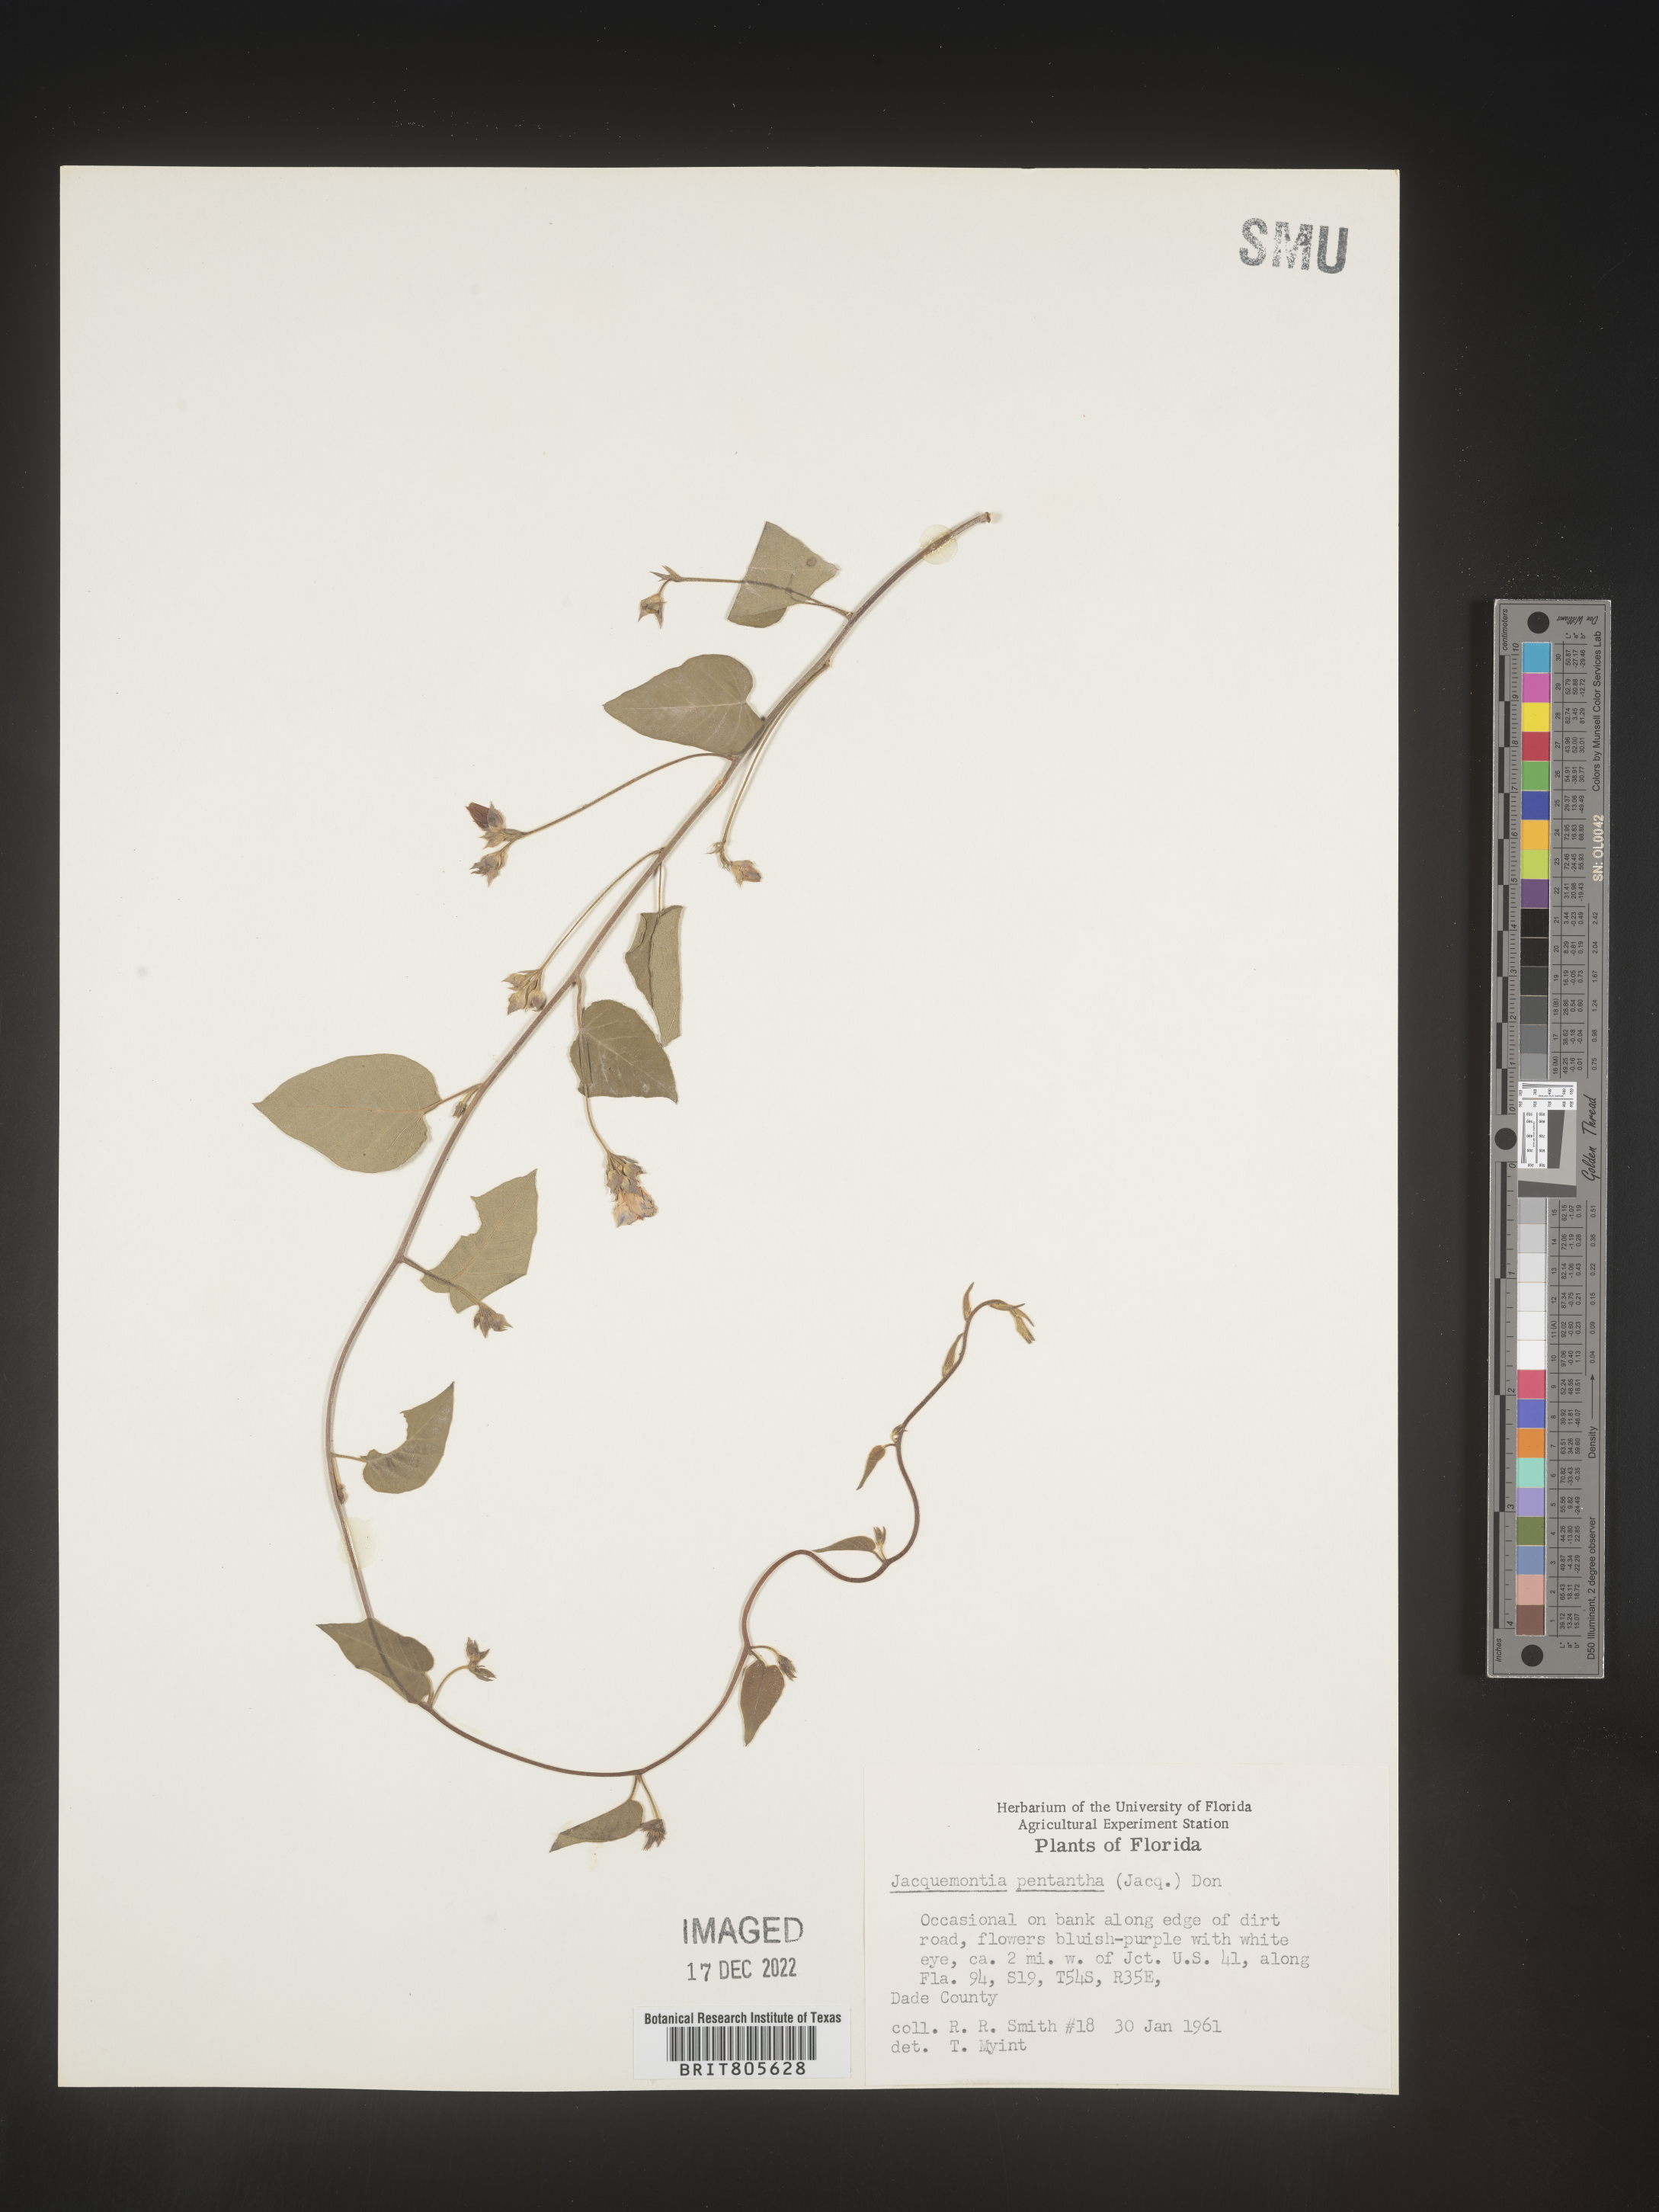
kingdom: Plantae
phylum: Tracheophyta
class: Magnoliopsida
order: Solanales
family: Convolvulaceae
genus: Jacquemontia
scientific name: Jacquemontia
